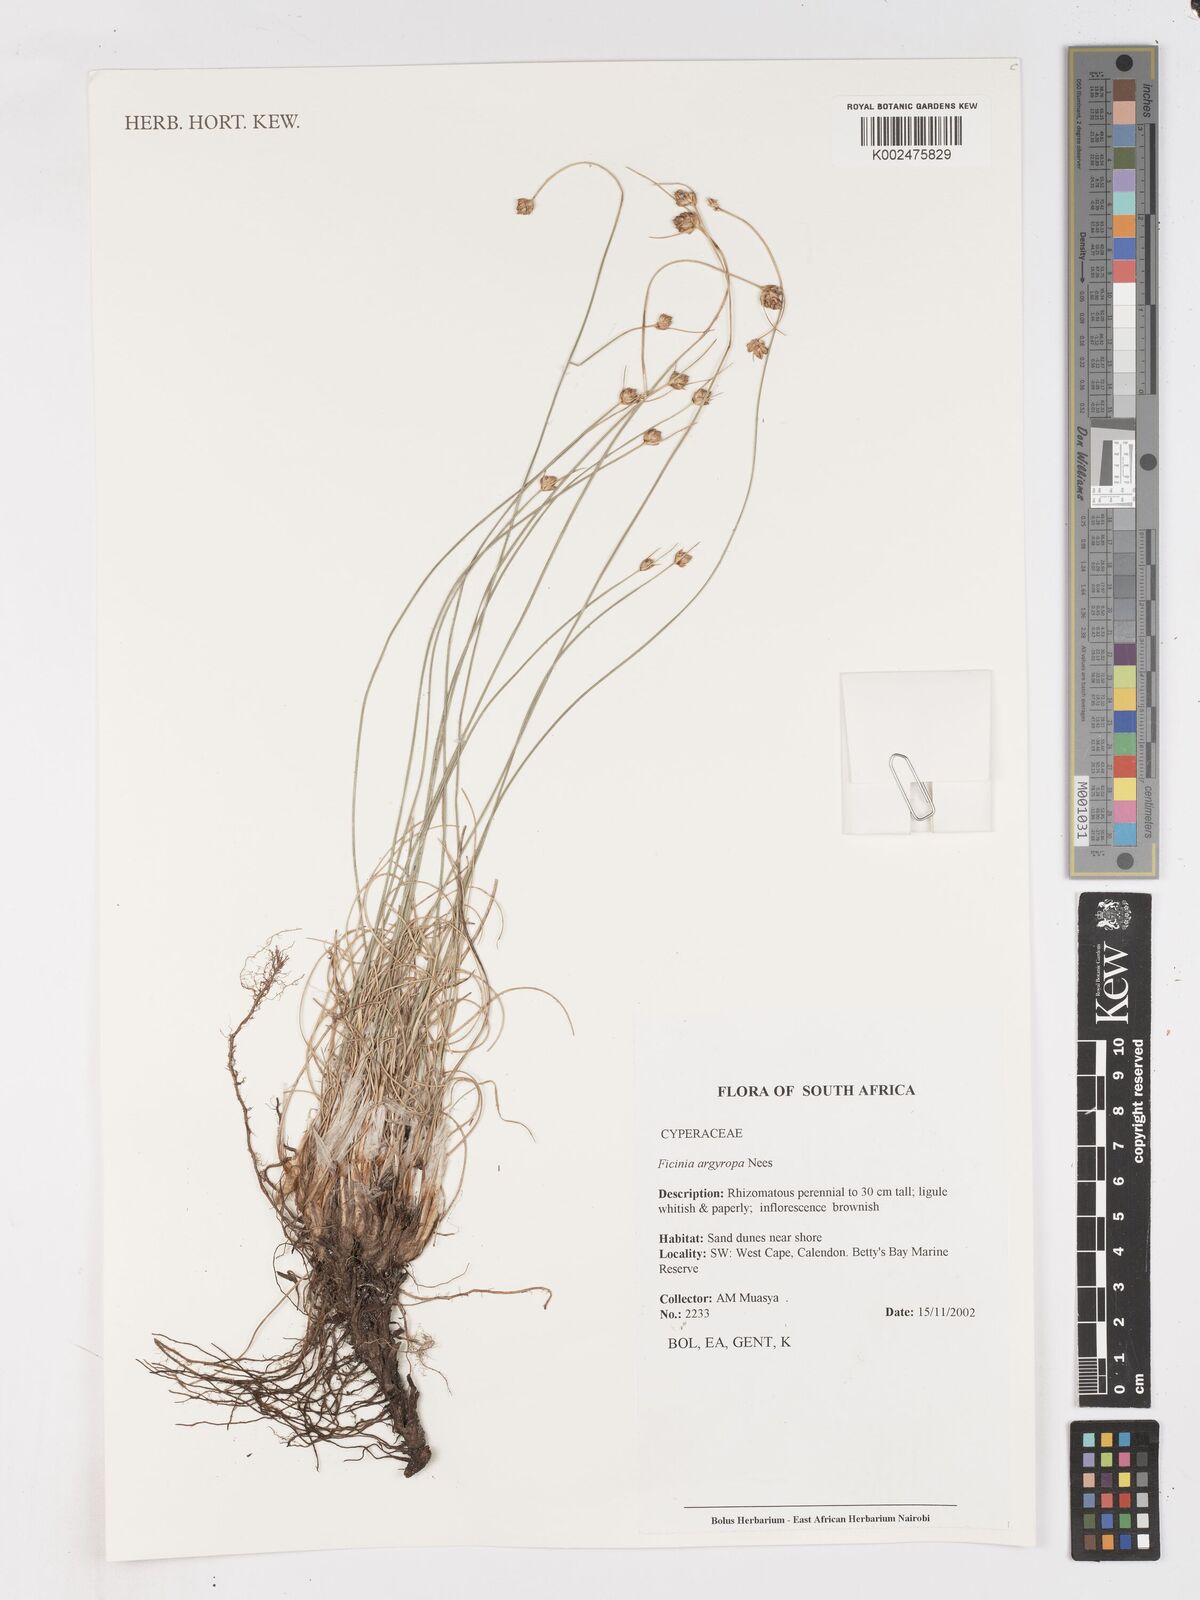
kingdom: Plantae
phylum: Tracheophyta
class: Liliopsida
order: Poales
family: Cyperaceae
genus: Ficinia
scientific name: Ficinia argyropus
